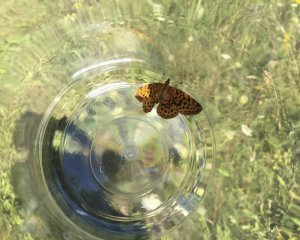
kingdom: Animalia
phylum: Arthropoda
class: Insecta
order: Lepidoptera
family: Nymphalidae
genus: Clossiana
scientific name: Clossiana toddi
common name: Meadow Fritillary
